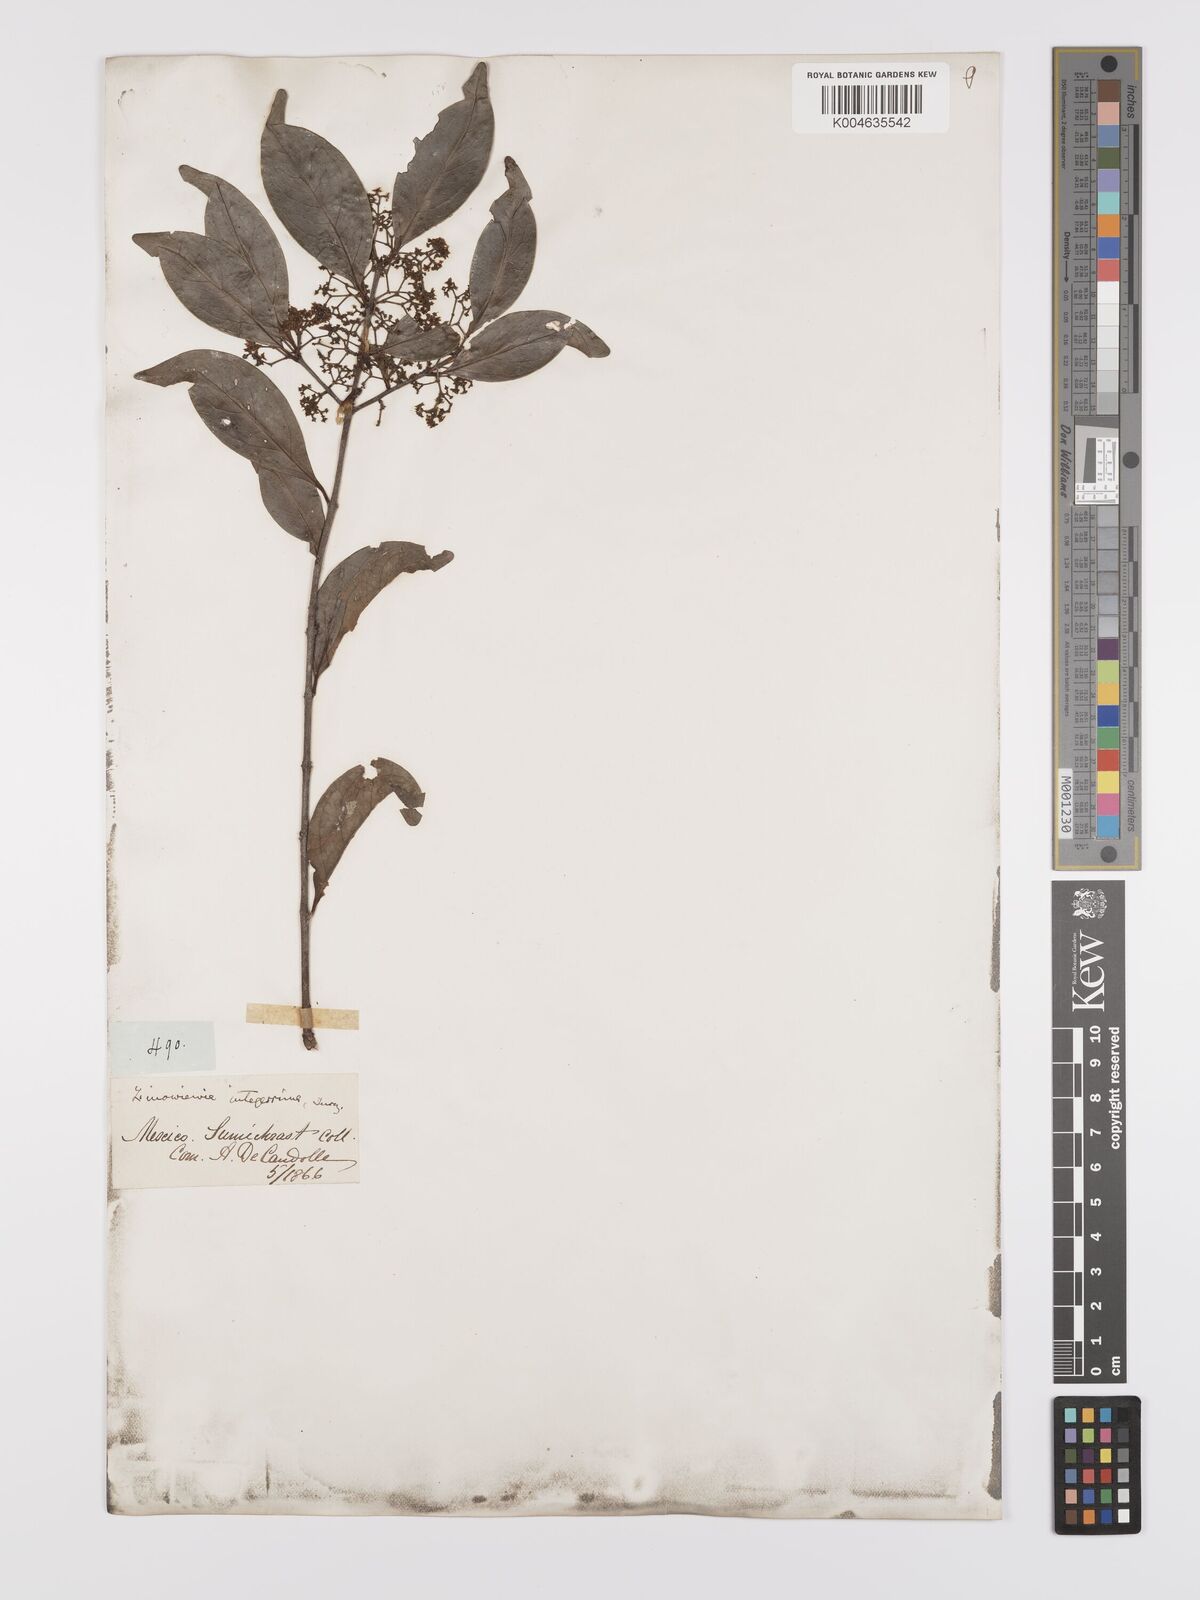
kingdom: Plantae
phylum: Tracheophyta
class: Magnoliopsida
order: Celastrales
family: Celastraceae
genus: Zinowiewia
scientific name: Zinowiewia integerrima
